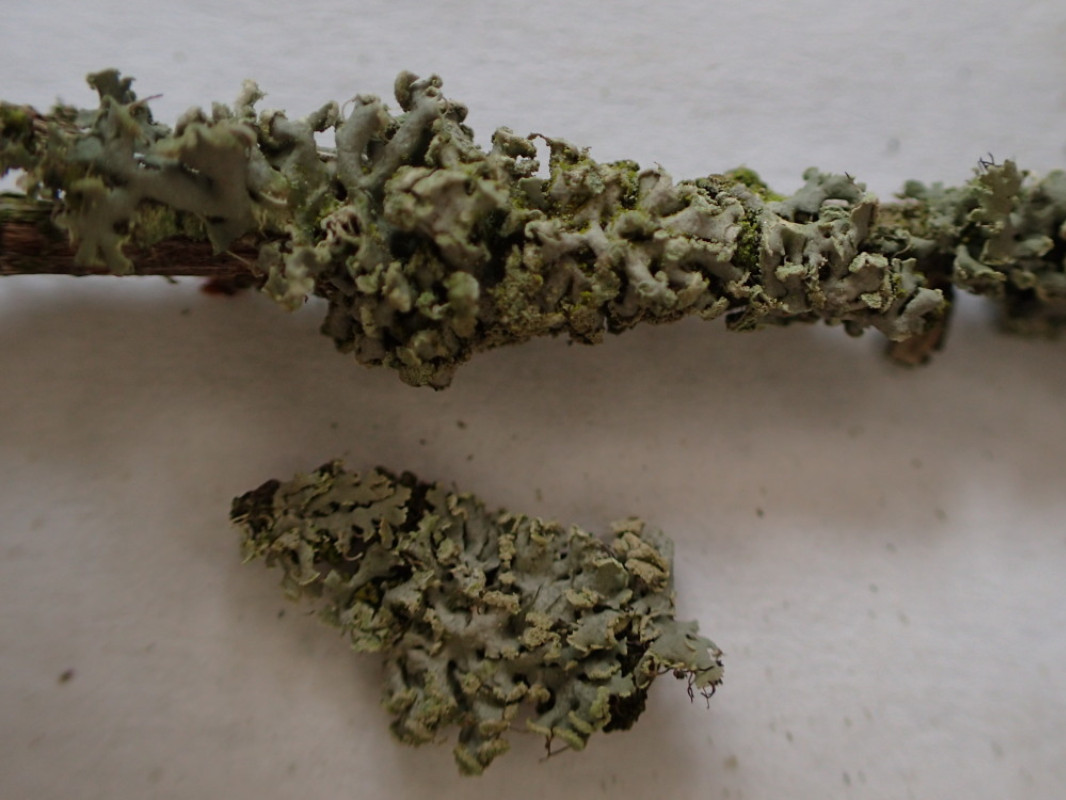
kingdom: Fungi
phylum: Ascomycota
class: Lecanoromycetes
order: Caliciales
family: Physciaceae
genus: Physcia
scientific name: Physcia tenella
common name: spæd rosetlav
